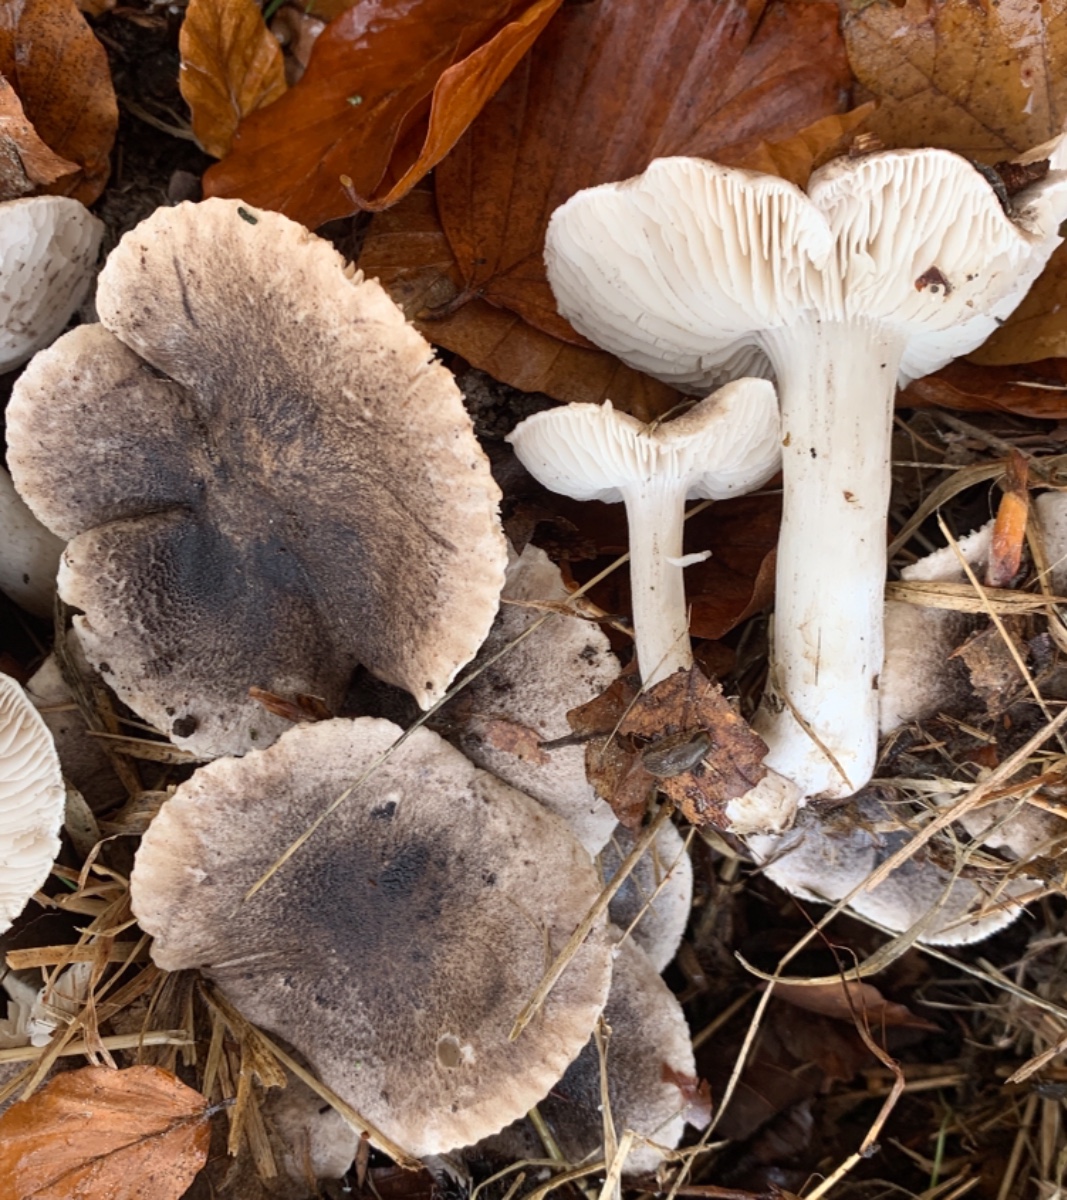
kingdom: Fungi
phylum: Basidiomycota
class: Agaricomycetes
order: Agaricales
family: Tricholomataceae
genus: Tricholoma
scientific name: Tricholoma scalpturatum
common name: gulplettet ridderhat
